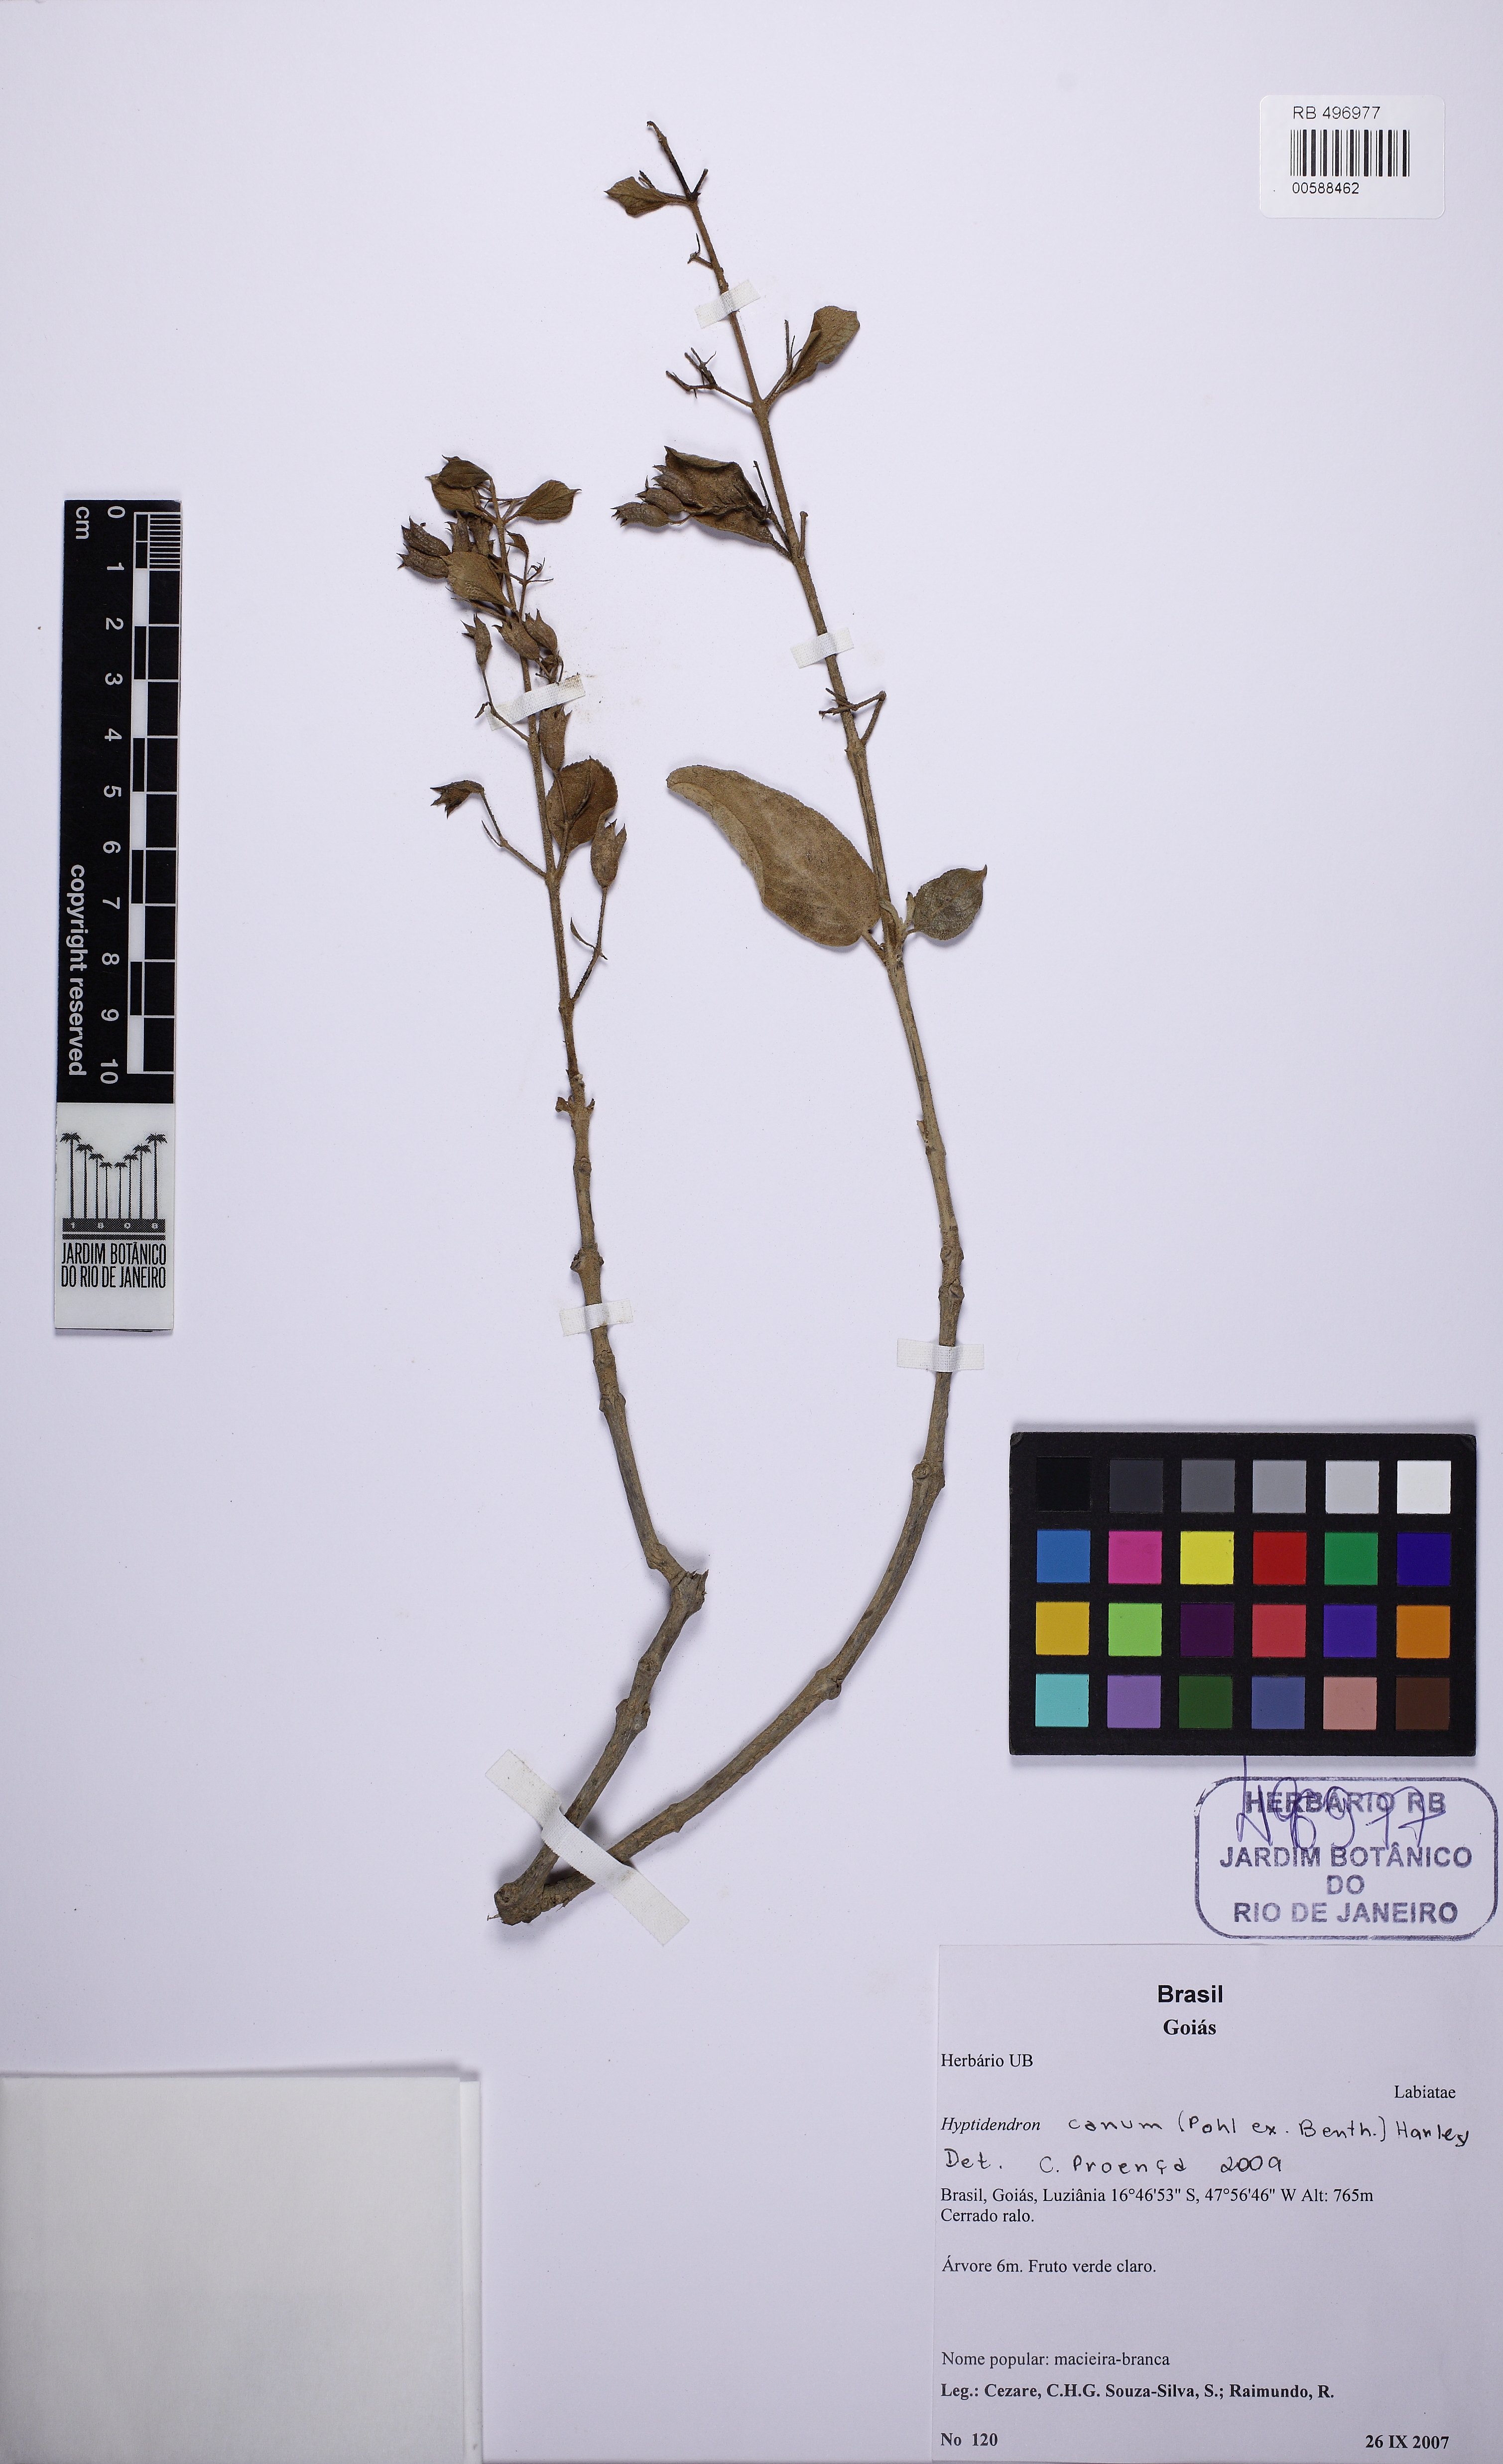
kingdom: Plantae
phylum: Tracheophyta
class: Magnoliopsida
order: Lamiales
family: Lamiaceae
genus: Hyptidendron
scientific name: Hyptidendron canum
